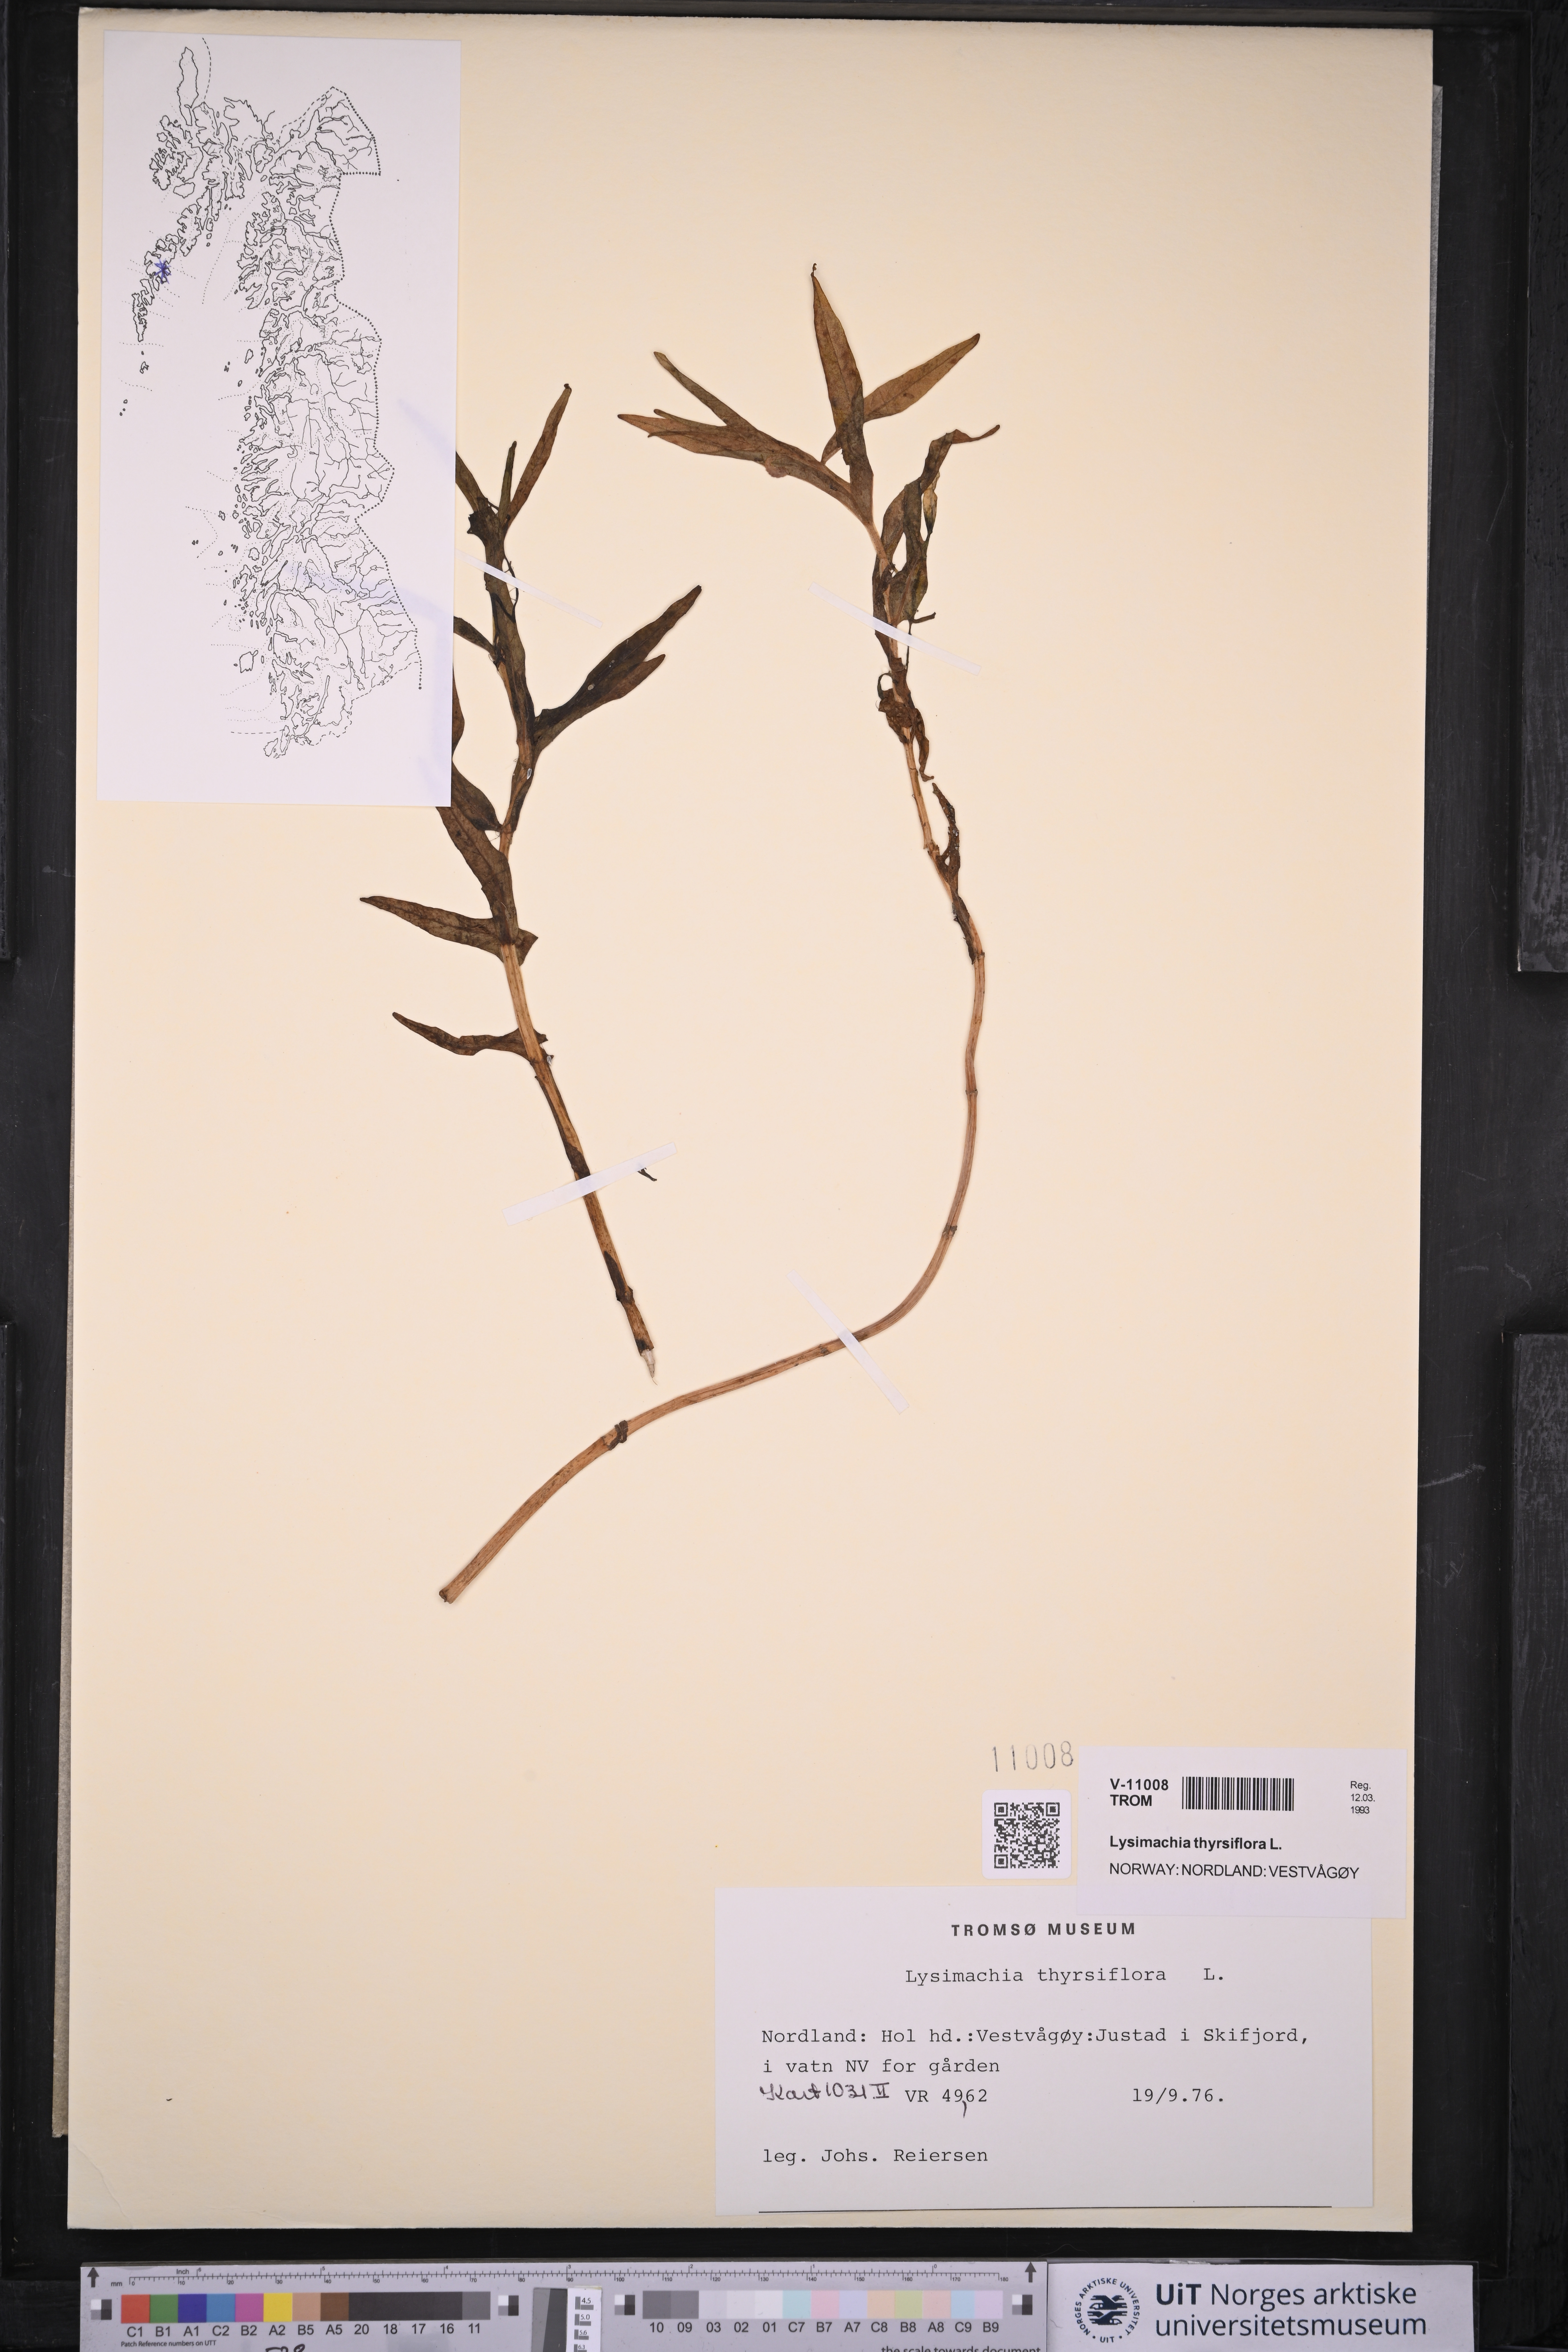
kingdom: Plantae
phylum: Tracheophyta
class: Magnoliopsida
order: Ericales
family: Primulaceae
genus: Lysimachia
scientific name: Lysimachia thyrsiflora
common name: Tufted loosestrife
